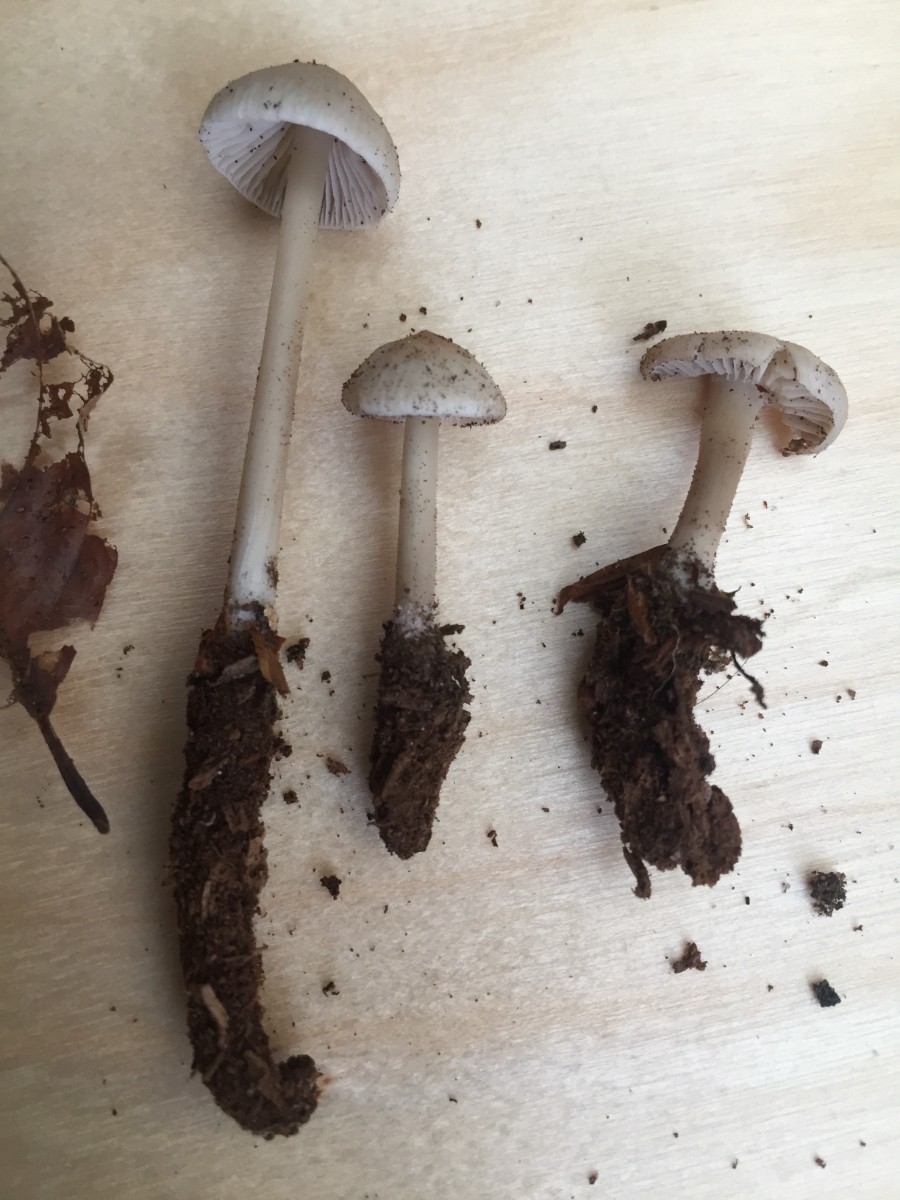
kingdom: Fungi
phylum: Basidiomycota
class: Agaricomycetes
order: Agaricales
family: Mycenaceae
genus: Mycena
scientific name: Mycena galericulata
